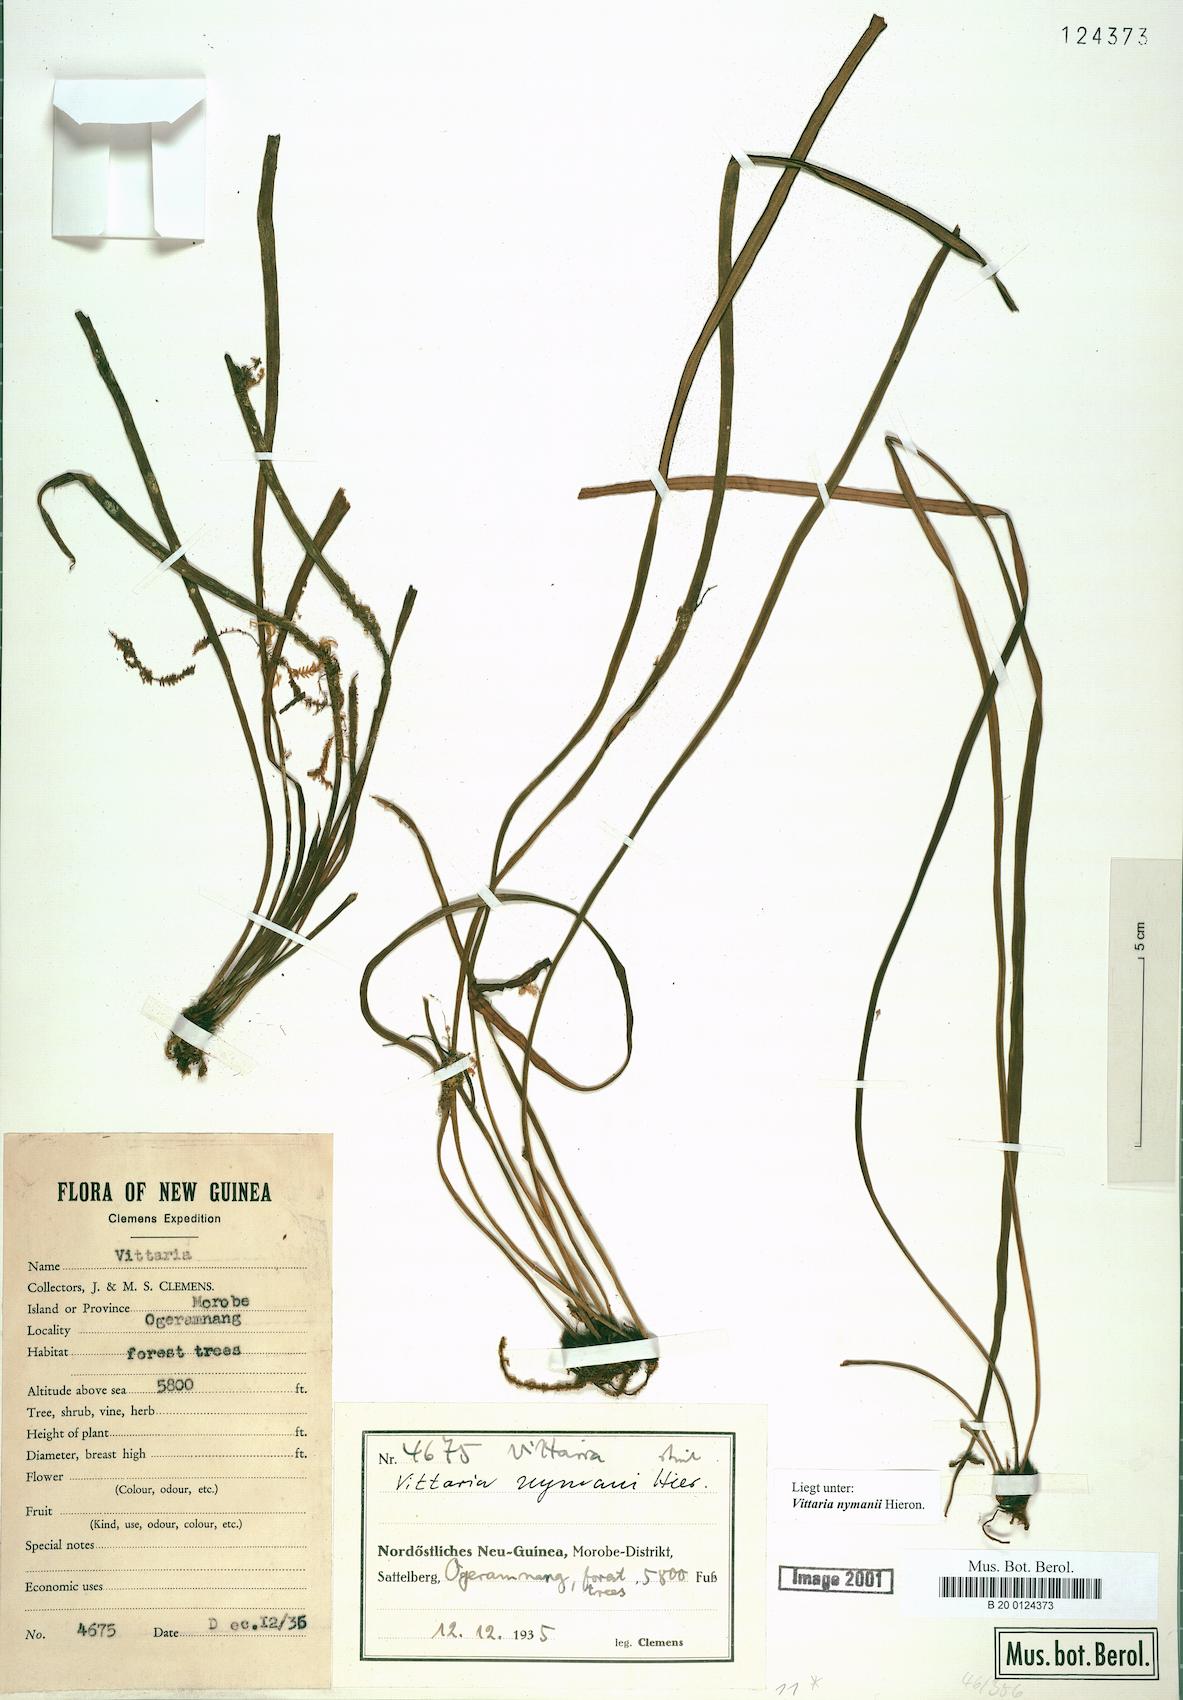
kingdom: Plantae
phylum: Tracheophyta
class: Polypodiopsida
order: Polypodiales
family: Pteridaceae
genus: Haplopteris
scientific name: Haplopteris elongata
